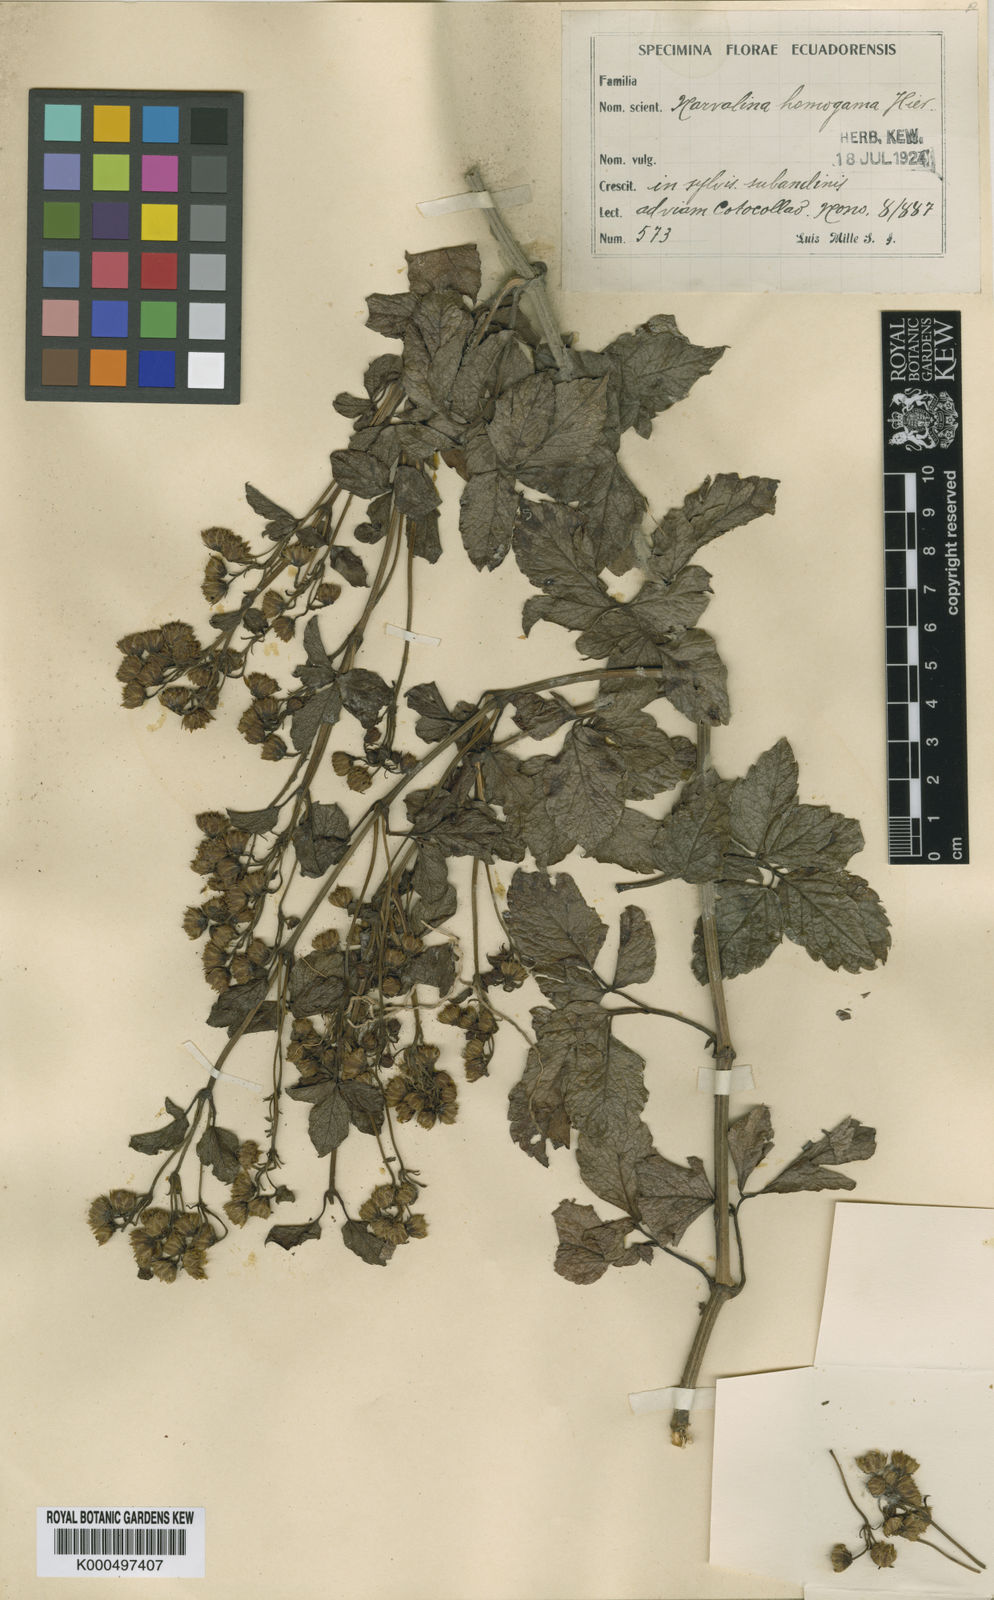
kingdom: Plantae
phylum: Tracheophyta
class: Magnoliopsida
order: Asterales
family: Asteraceae
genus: Ericentrodea
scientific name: Ericentrodea homogama
